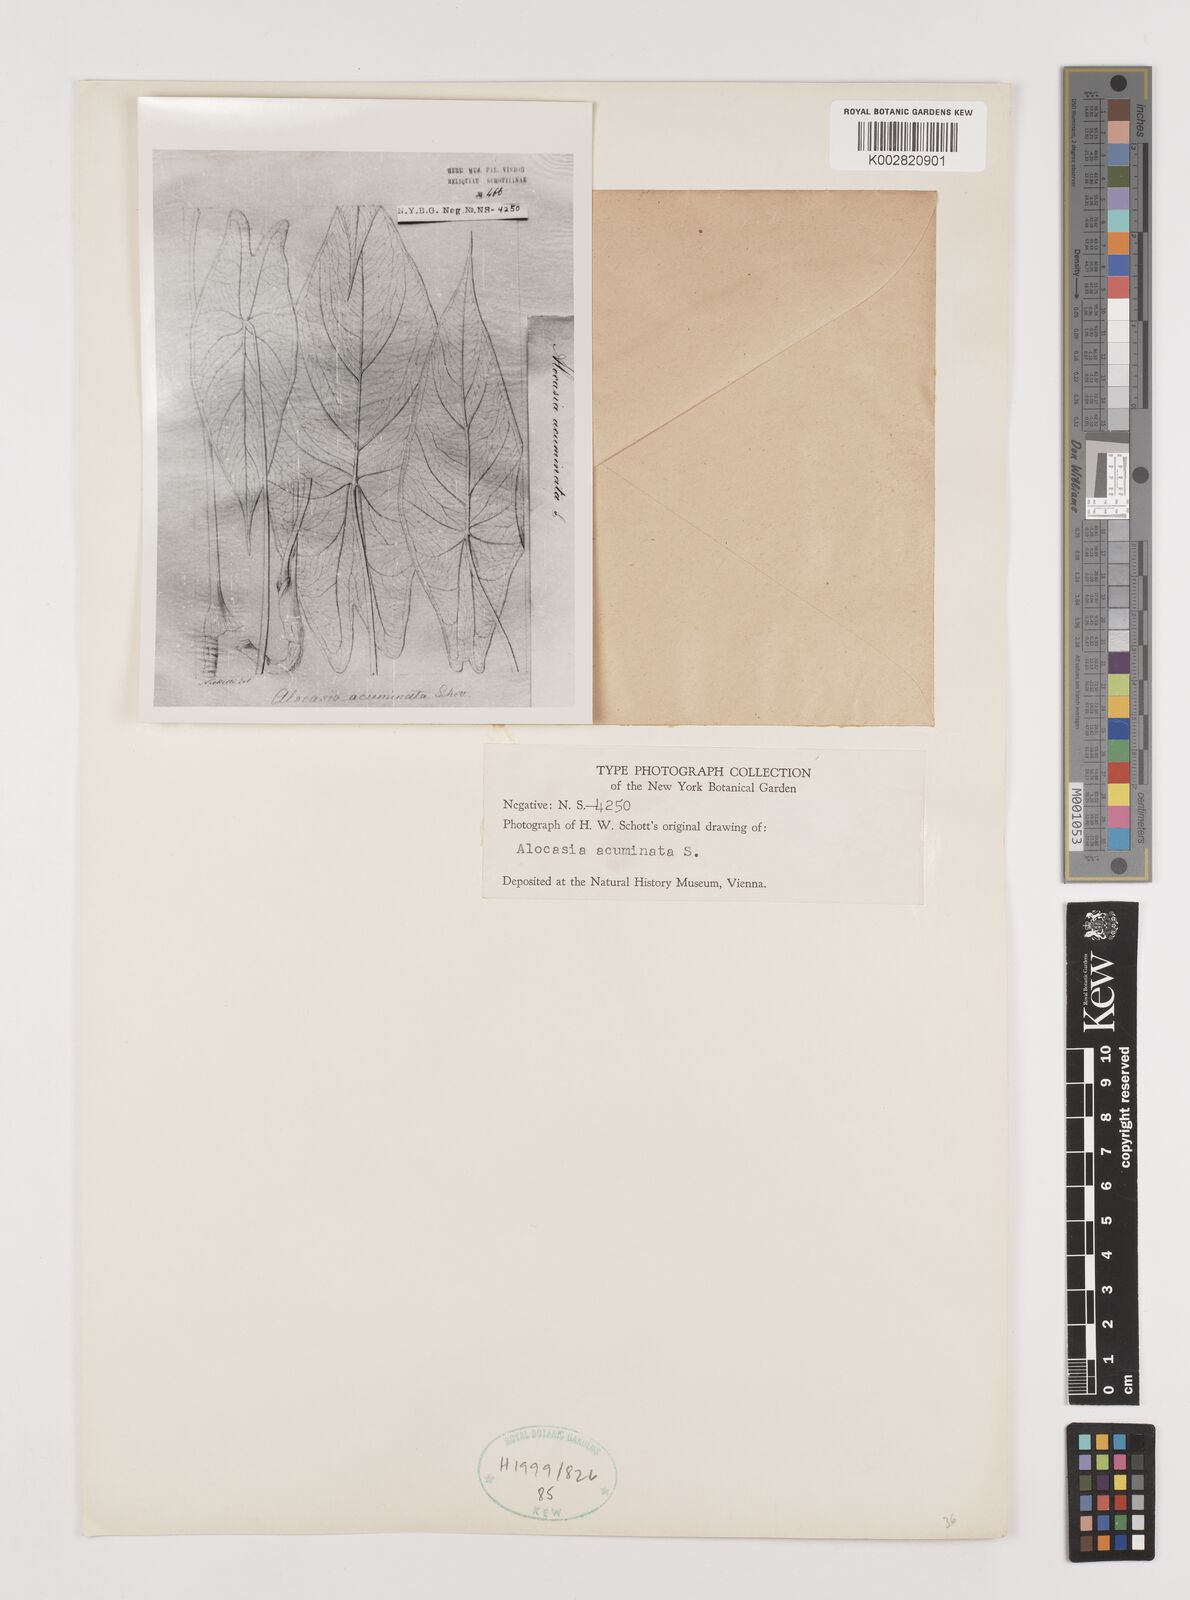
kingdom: Plantae
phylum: Tracheophyta
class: Liliopsida
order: Alismatales
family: Araceae
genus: Alocasia
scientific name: Alocasia acuminata
